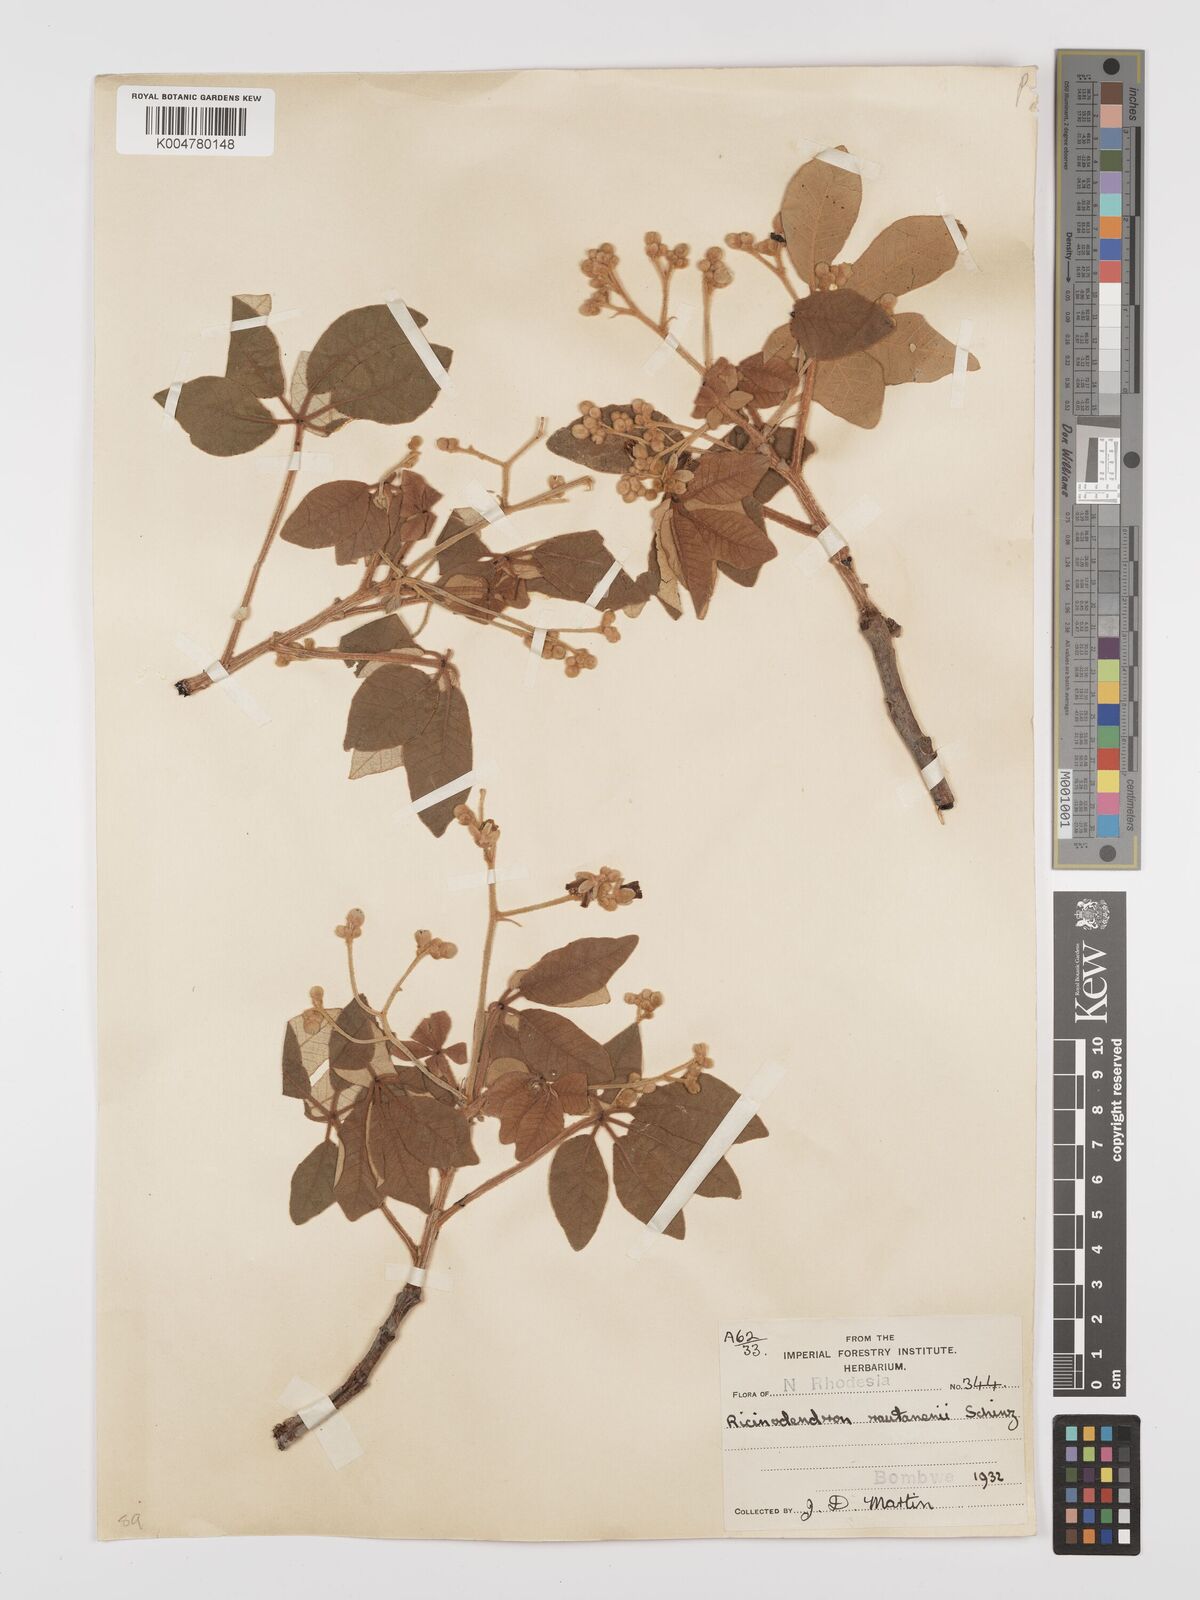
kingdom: Plantae
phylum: Tracheophyta
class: Magnoliopsida
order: Malpighiales
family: Euphorbiaceae
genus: Schinziophyton
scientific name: Schinziophyton rautanenii
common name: Manketti
